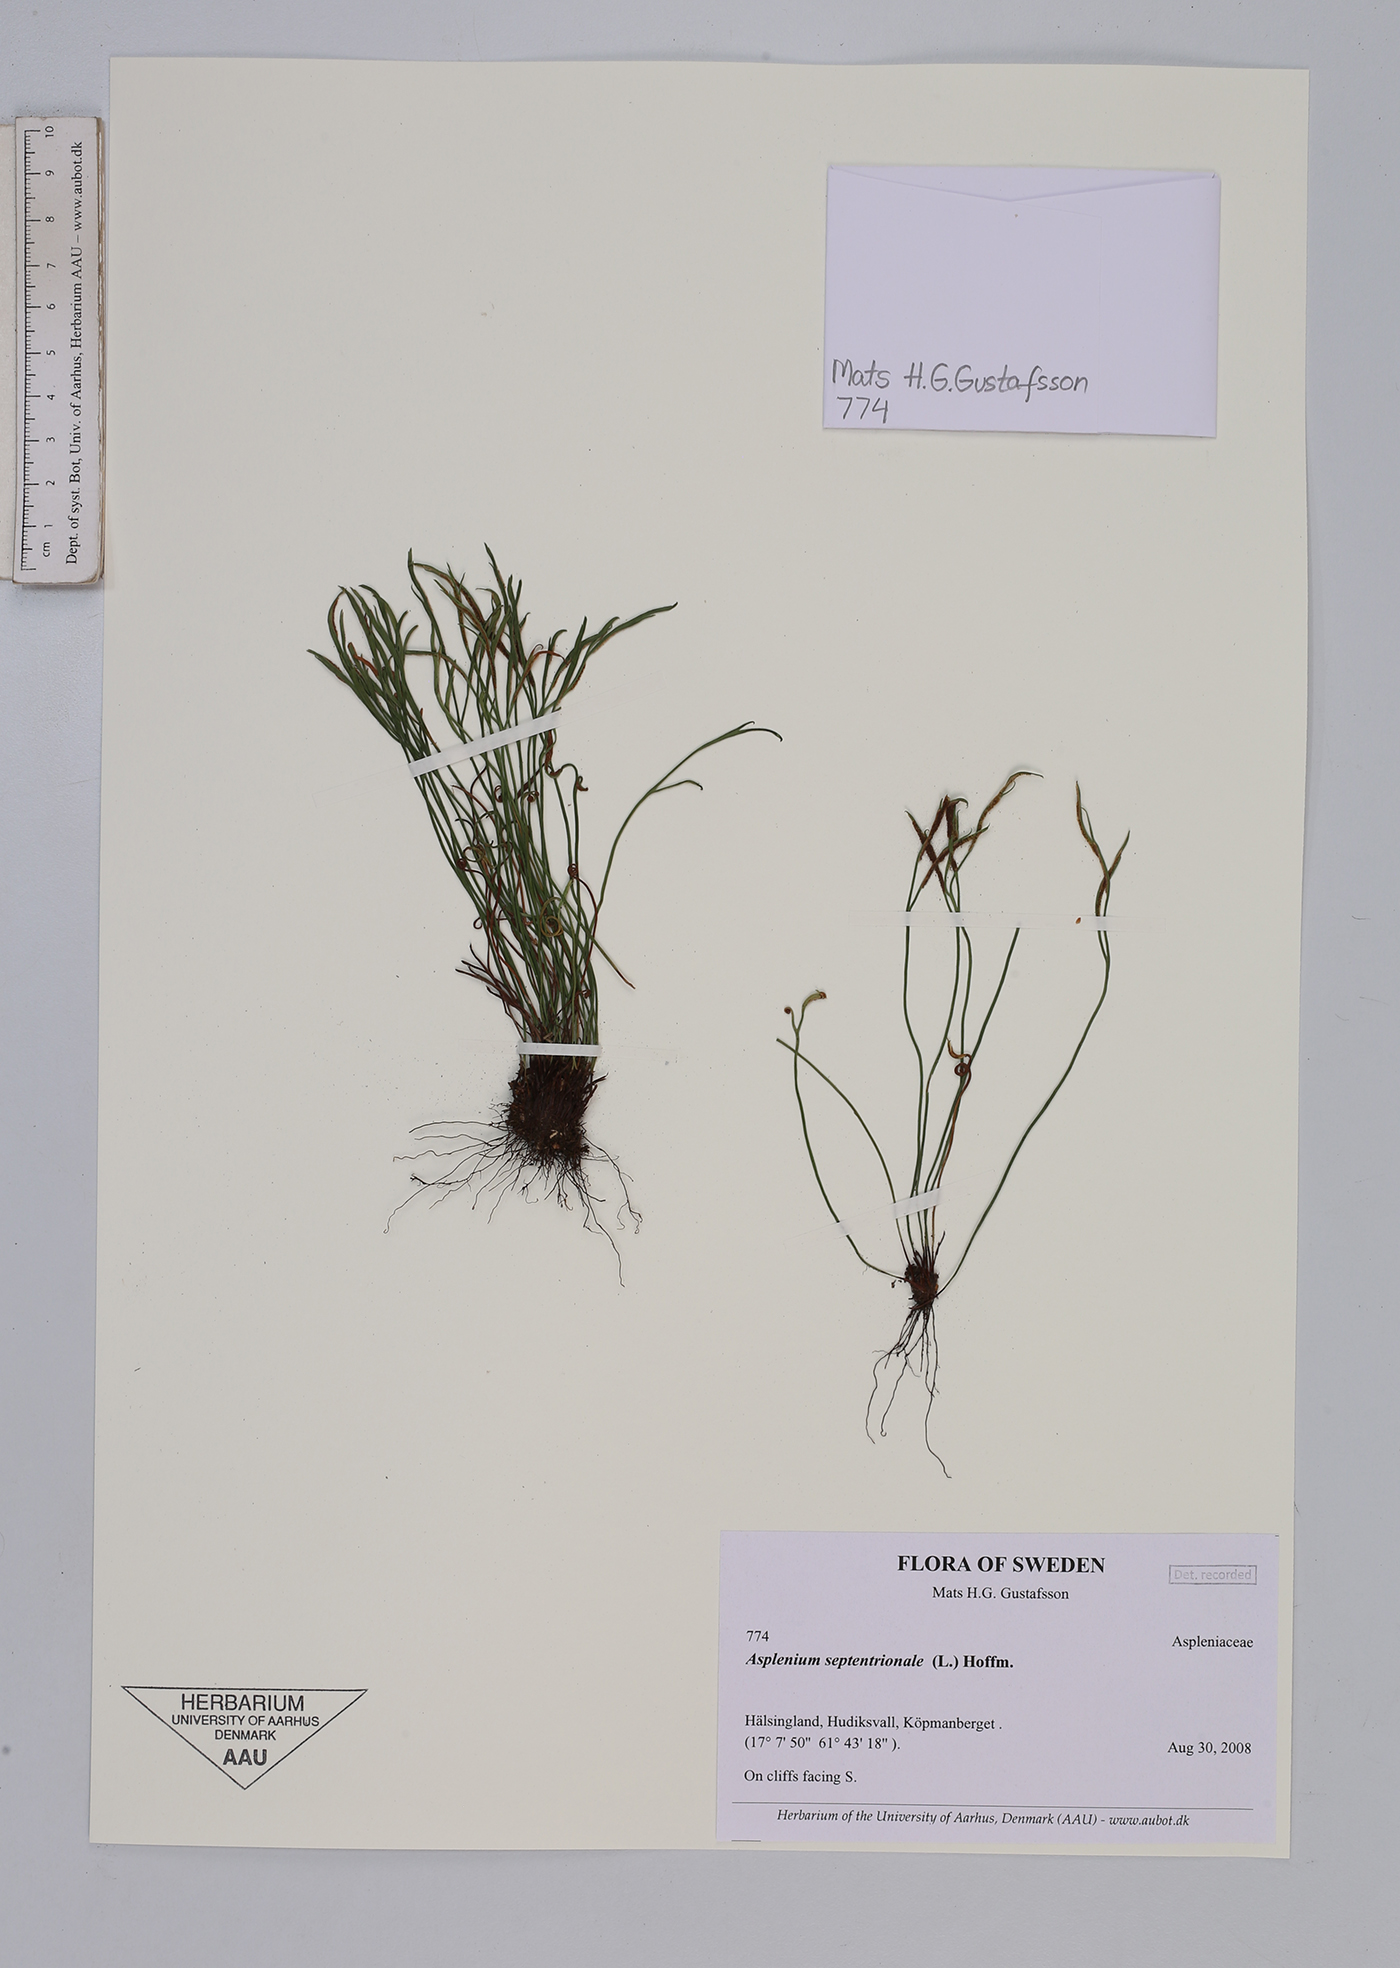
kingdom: Plantae
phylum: Tracheophyta
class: Polypodiopsida
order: Polypodiales
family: Aspleniaceae
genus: Asplenium
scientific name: Asplenium septentrionale
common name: Forked spleenwort
